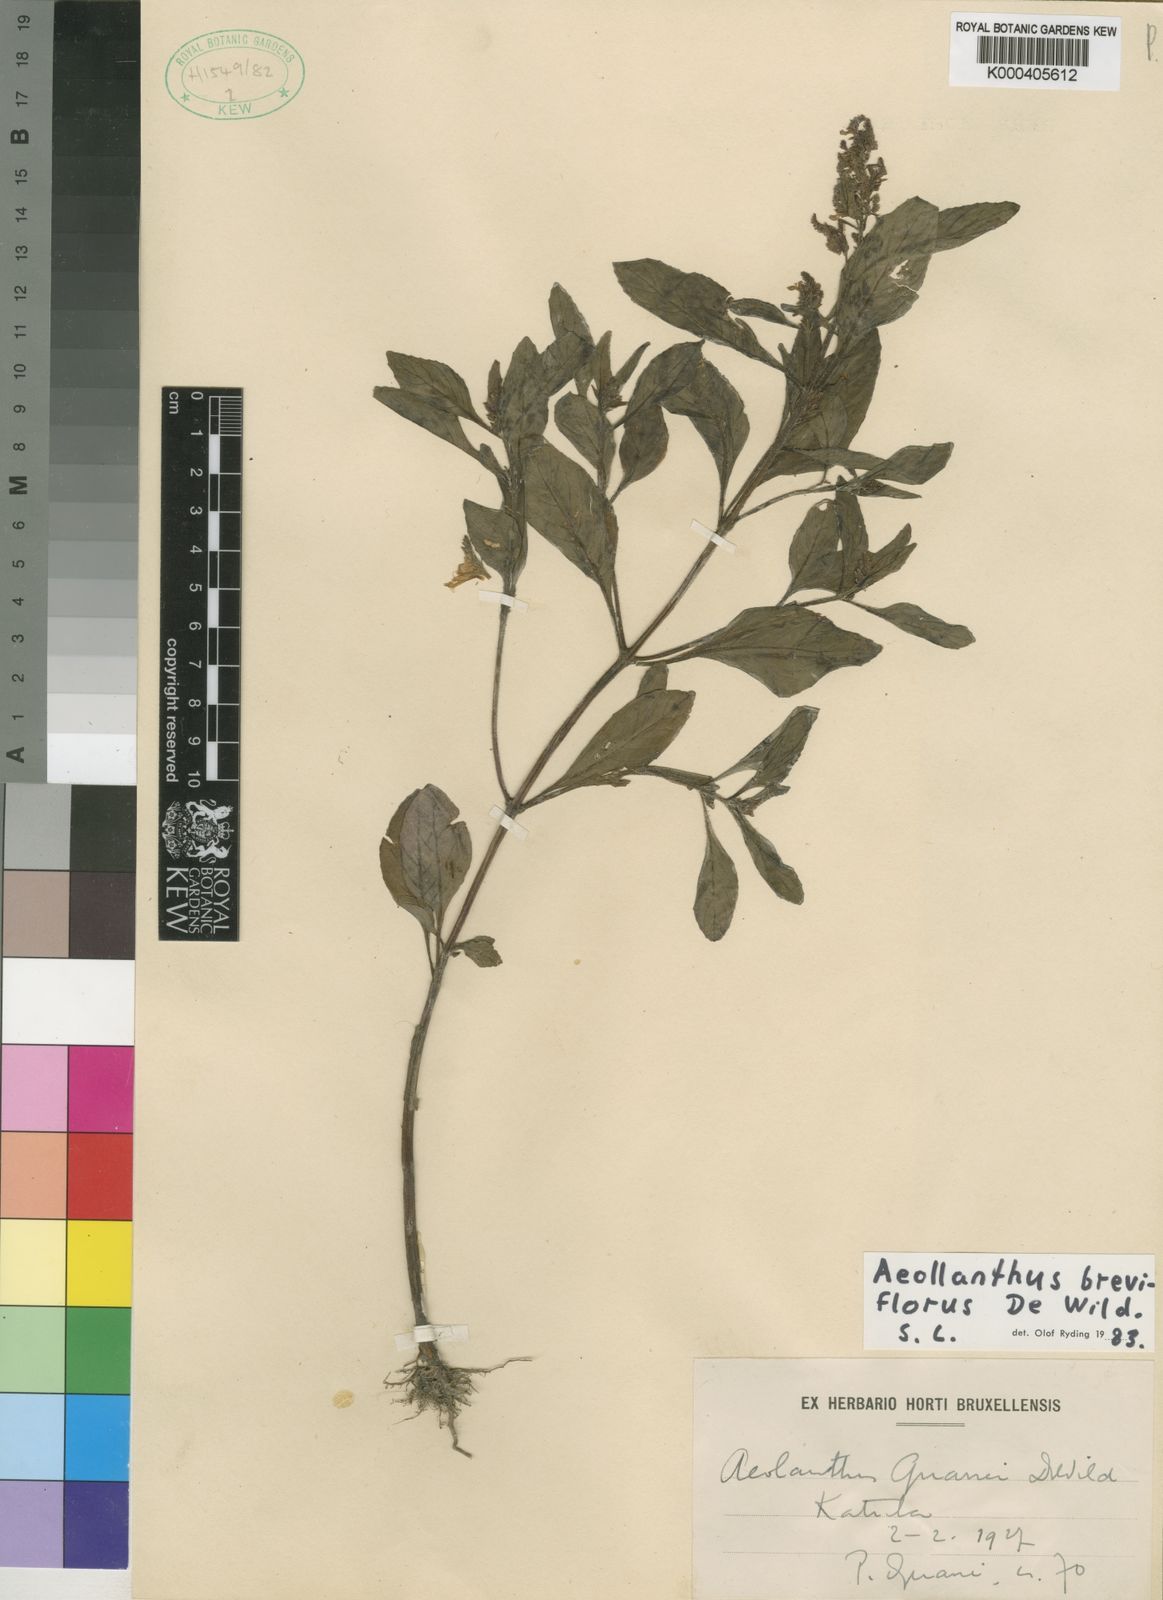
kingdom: Plantae
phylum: Tracheophyta
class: Magnoliopsida
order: Lamiales
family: Lamiaceae
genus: Aeollanthus
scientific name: Aeollanthus breviflorus
